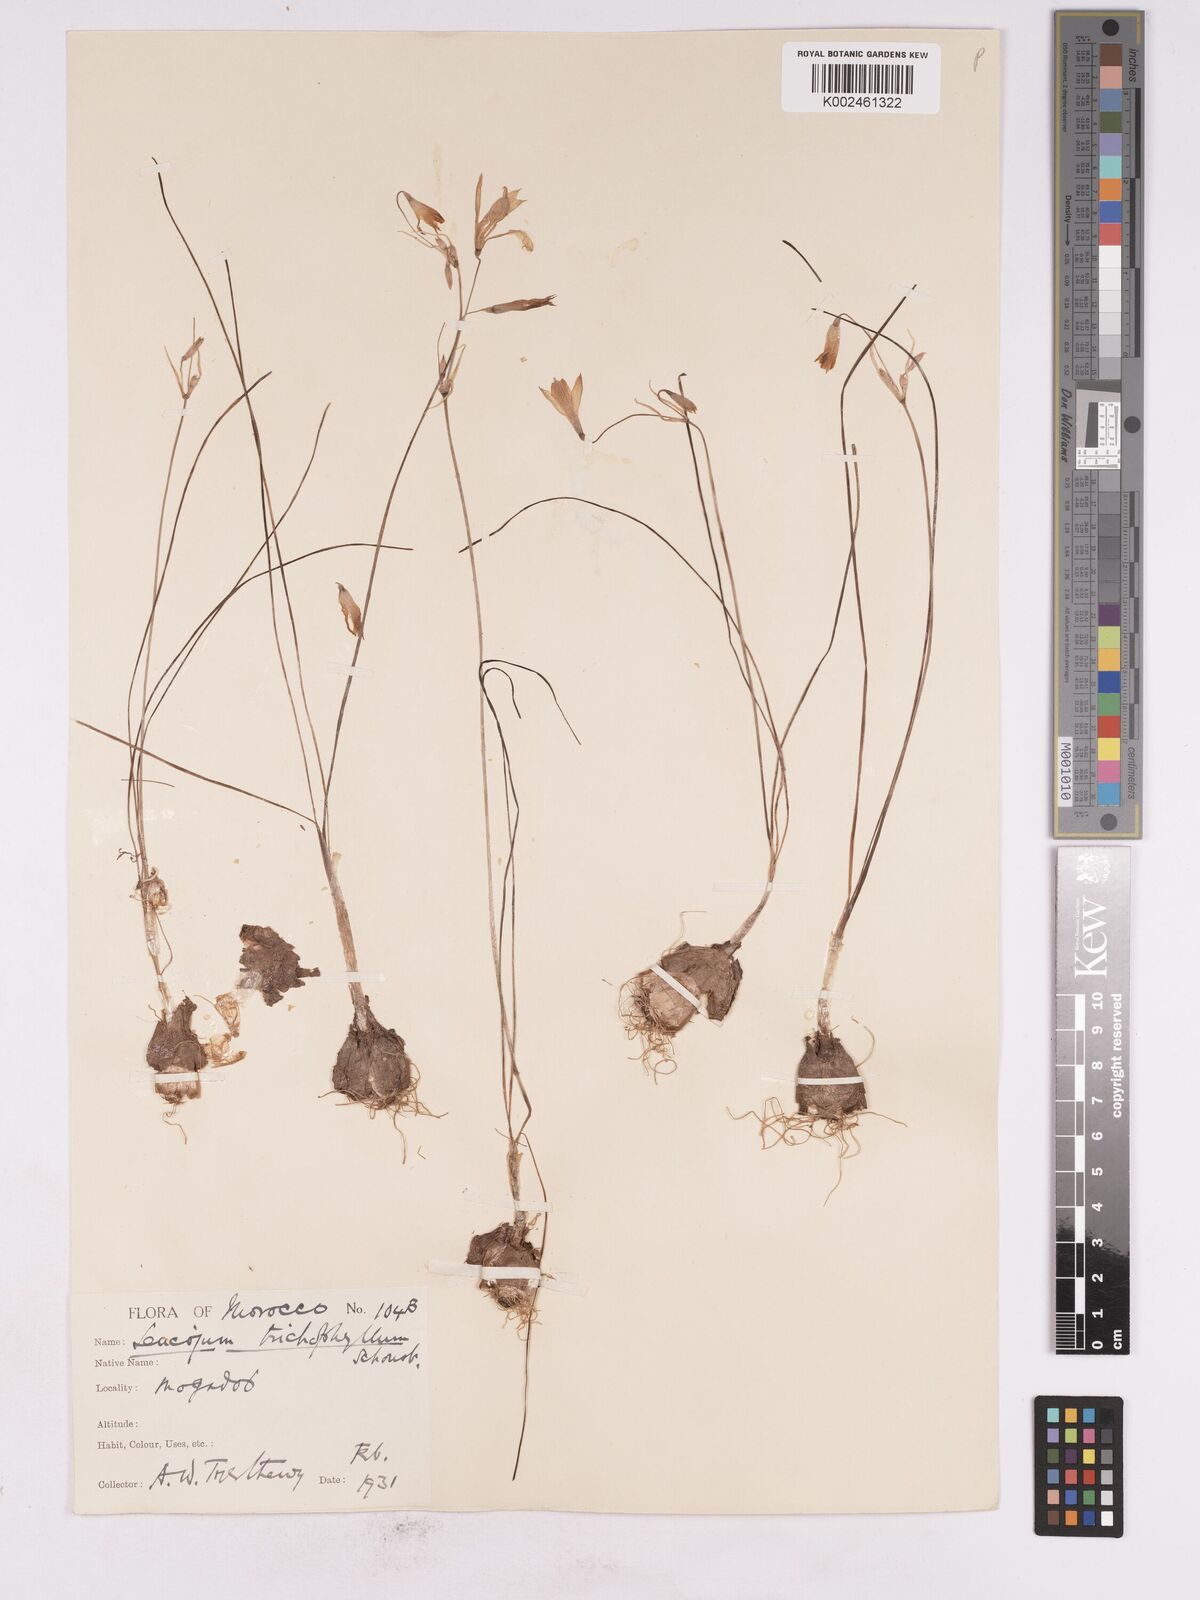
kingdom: Plantae
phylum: Tracheophyta
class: Liliopsida
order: Asparagales
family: Amaryllidaceae
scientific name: Amaryllidaceae
